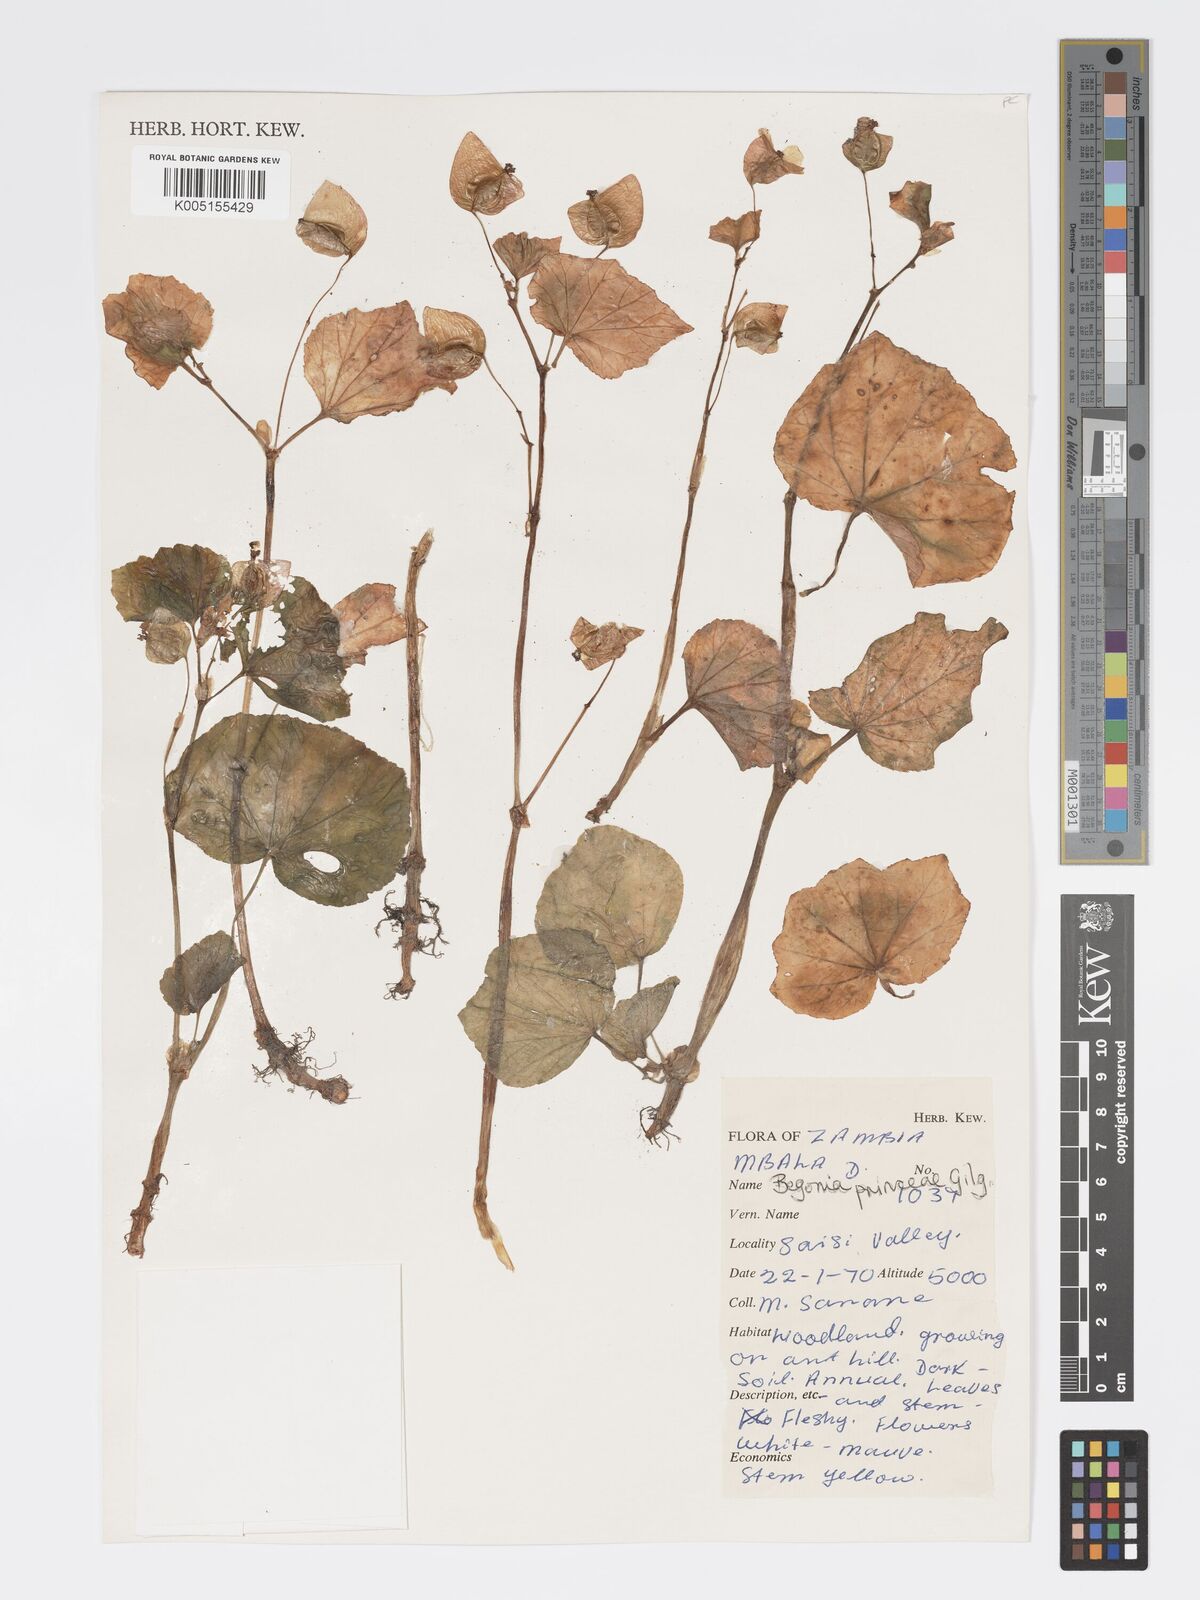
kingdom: Plantae
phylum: Tracheophyta
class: Magnoliopsida
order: Cucurbitales
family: Begoniaceae
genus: Begonia
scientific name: Begonia princeae
